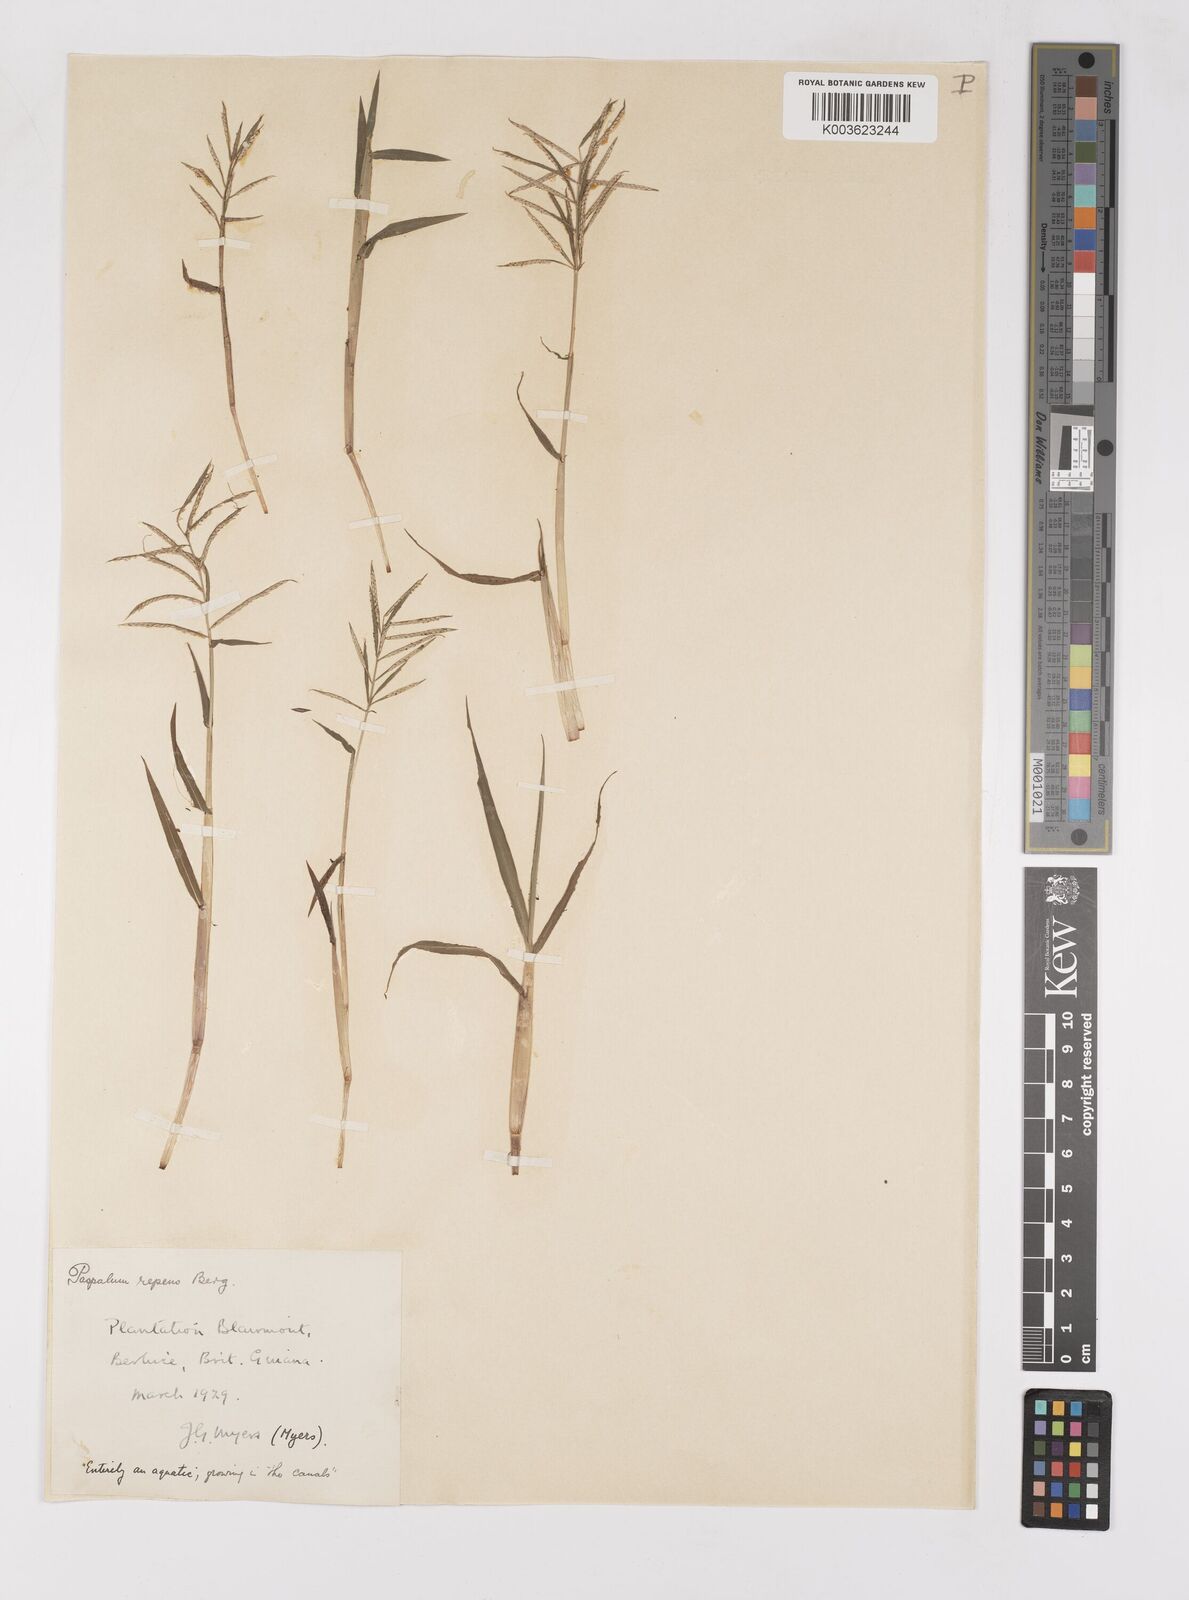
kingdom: Plantae
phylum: Tracheophyta
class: Liliopsida
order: Poales
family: Poaceae
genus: Paspalum
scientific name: Paspalum repens
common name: Water paspalum
